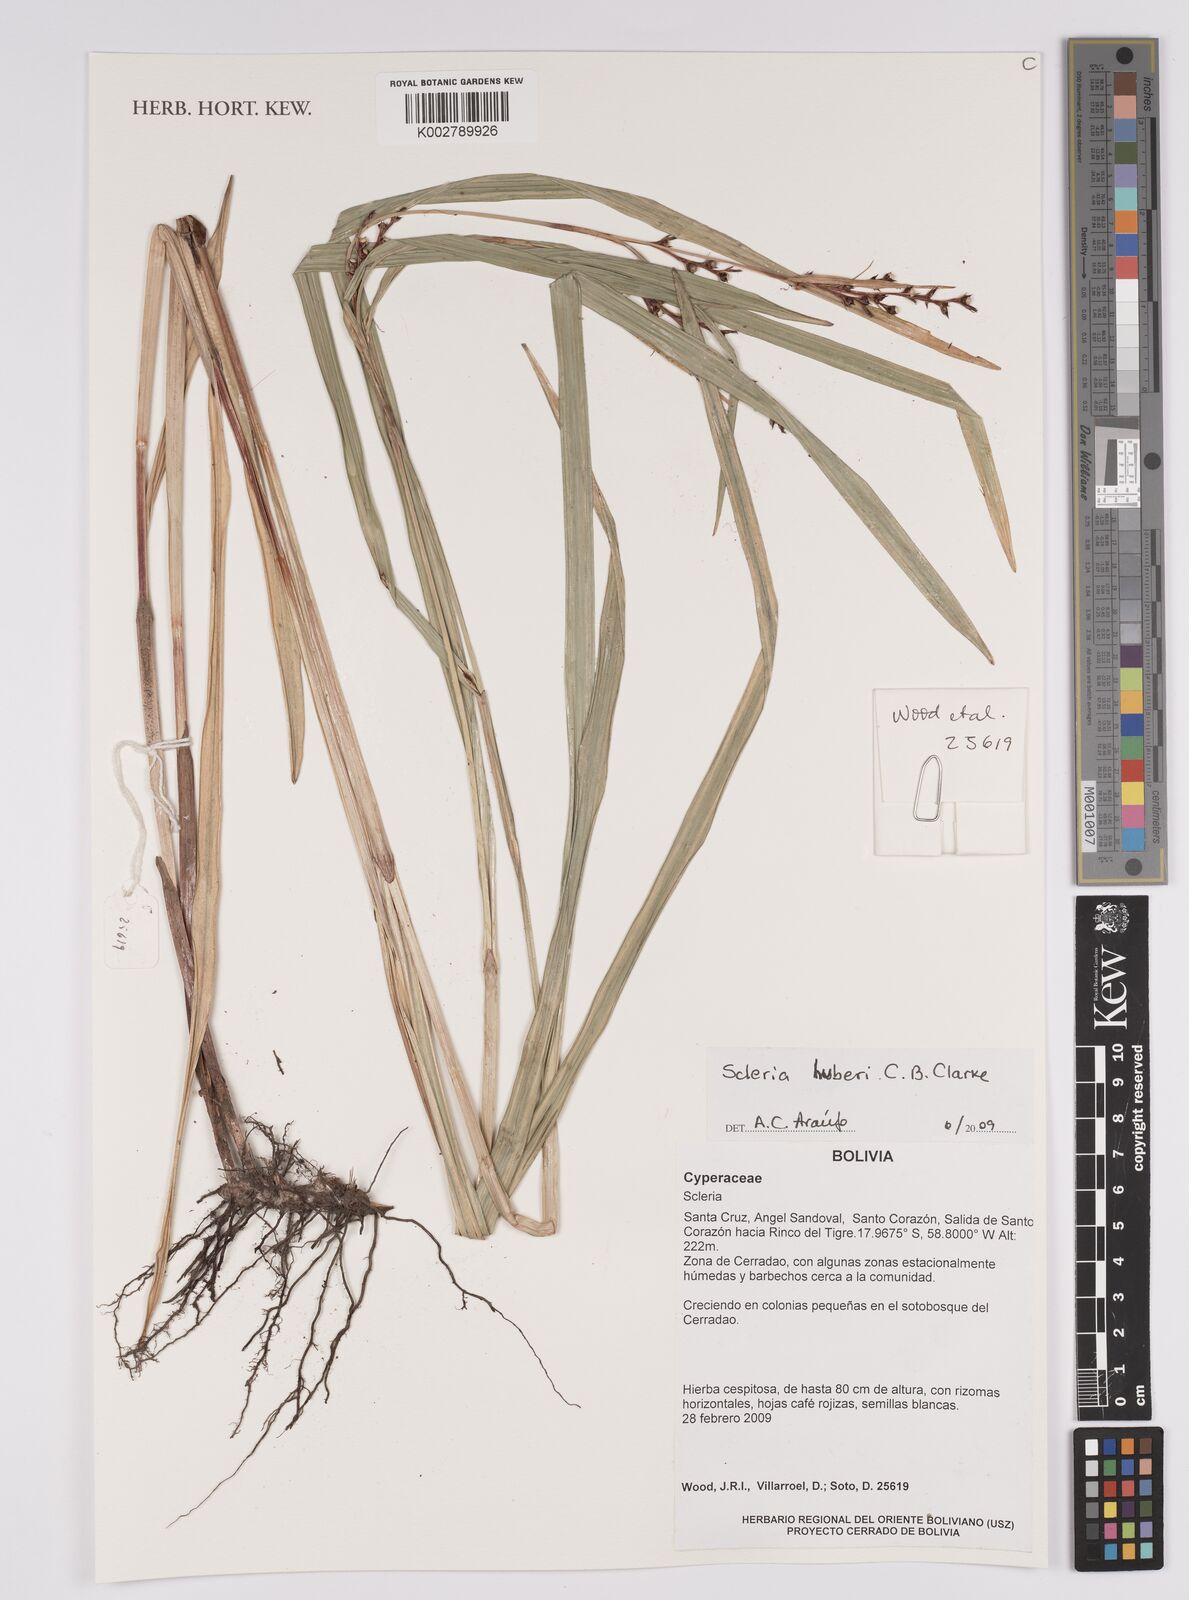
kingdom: Plantae
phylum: Tracheophyta
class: Liliopsida
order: Poales
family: Cyperaceae
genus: Scleria
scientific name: Scleria huberi
